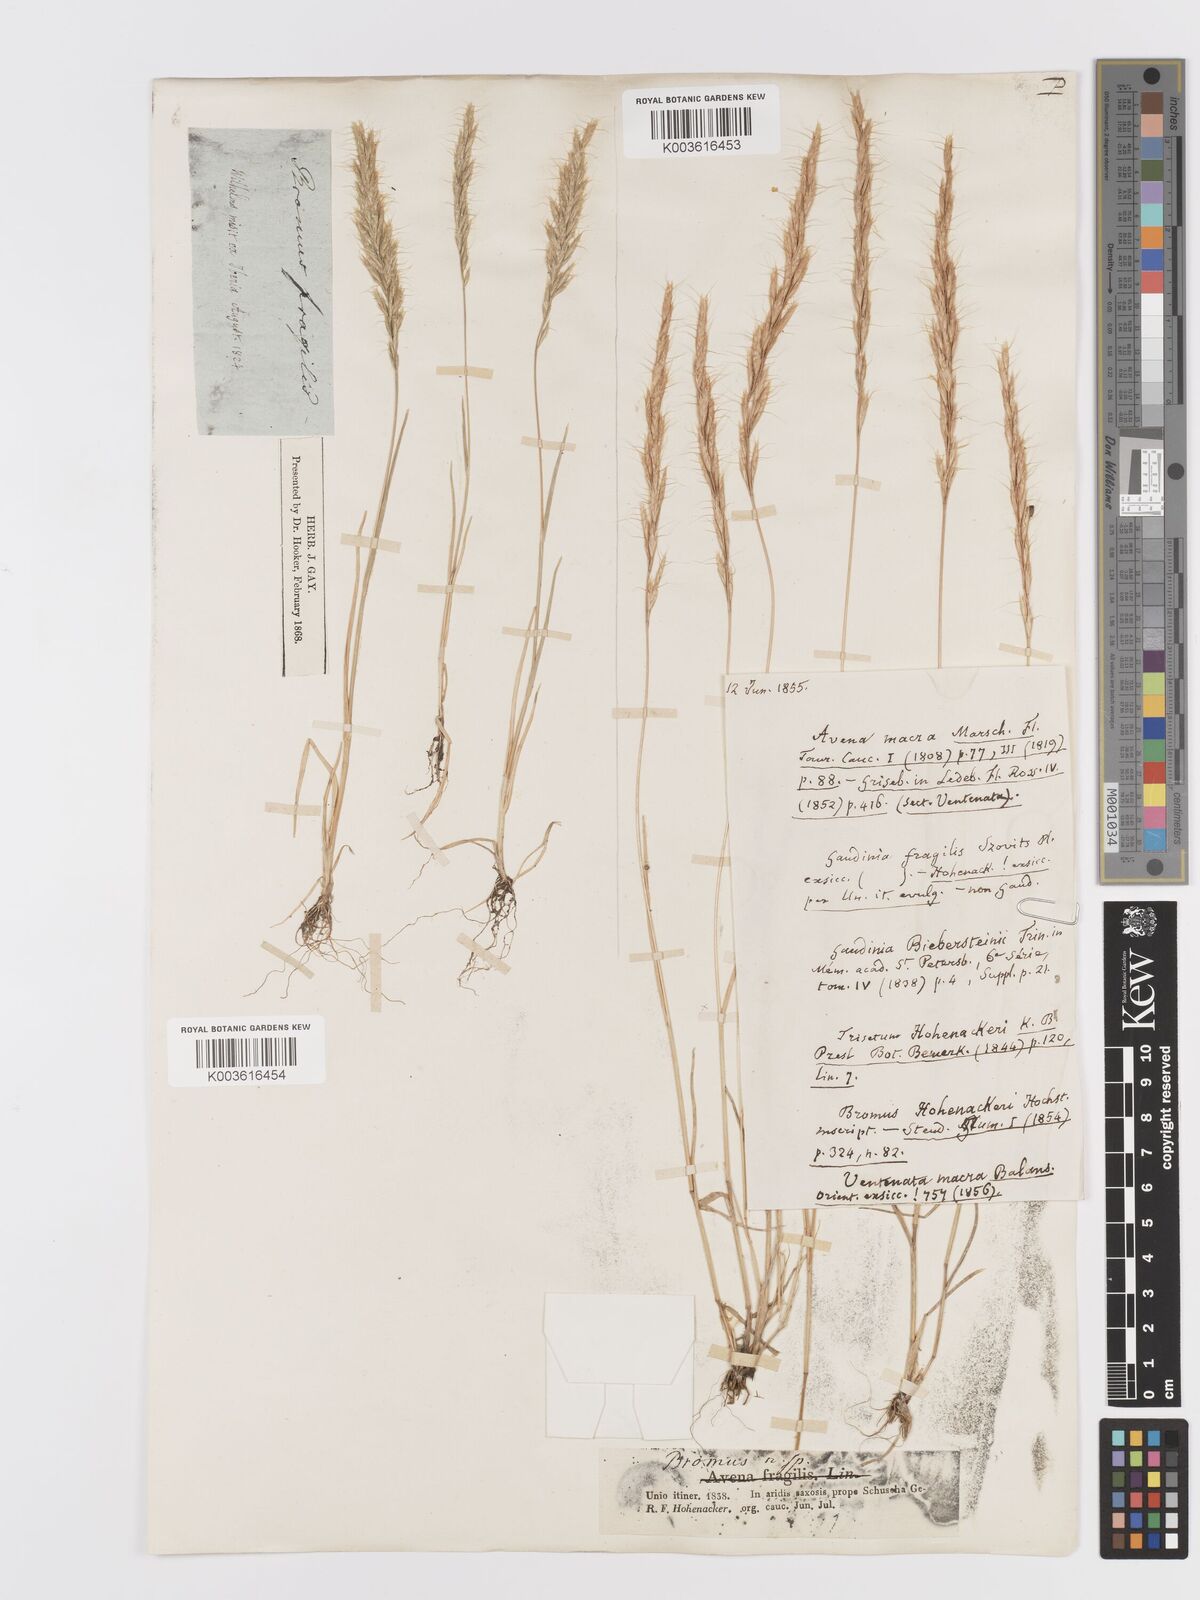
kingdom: Plantae
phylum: Tracheophyta
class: Liliopsida
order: Poales
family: Poaceae
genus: Ventenata
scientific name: Ventenata macra
